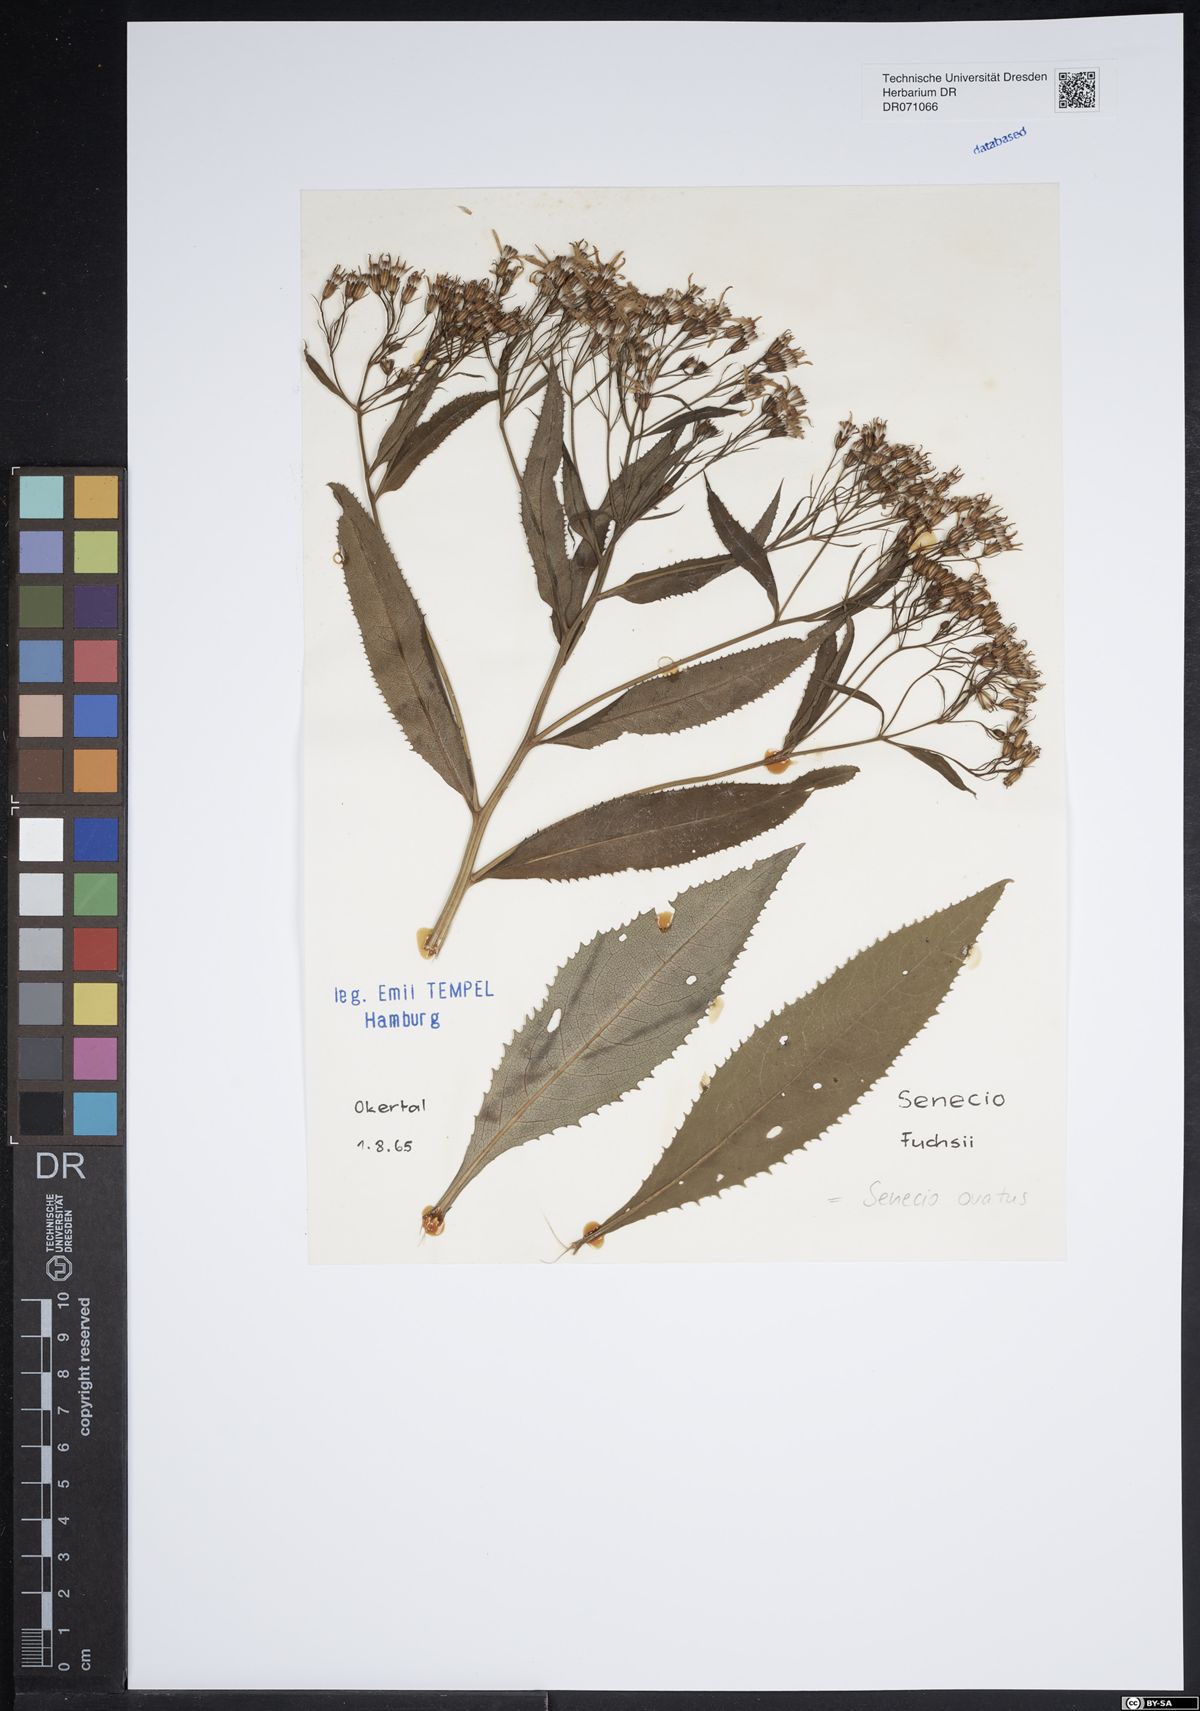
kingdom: Plantae
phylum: Tracheophyta
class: Magnoliopsida
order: Asterales
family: Asteraceae
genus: Senecio
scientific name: Senecio ovatus
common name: Wood ragwort
